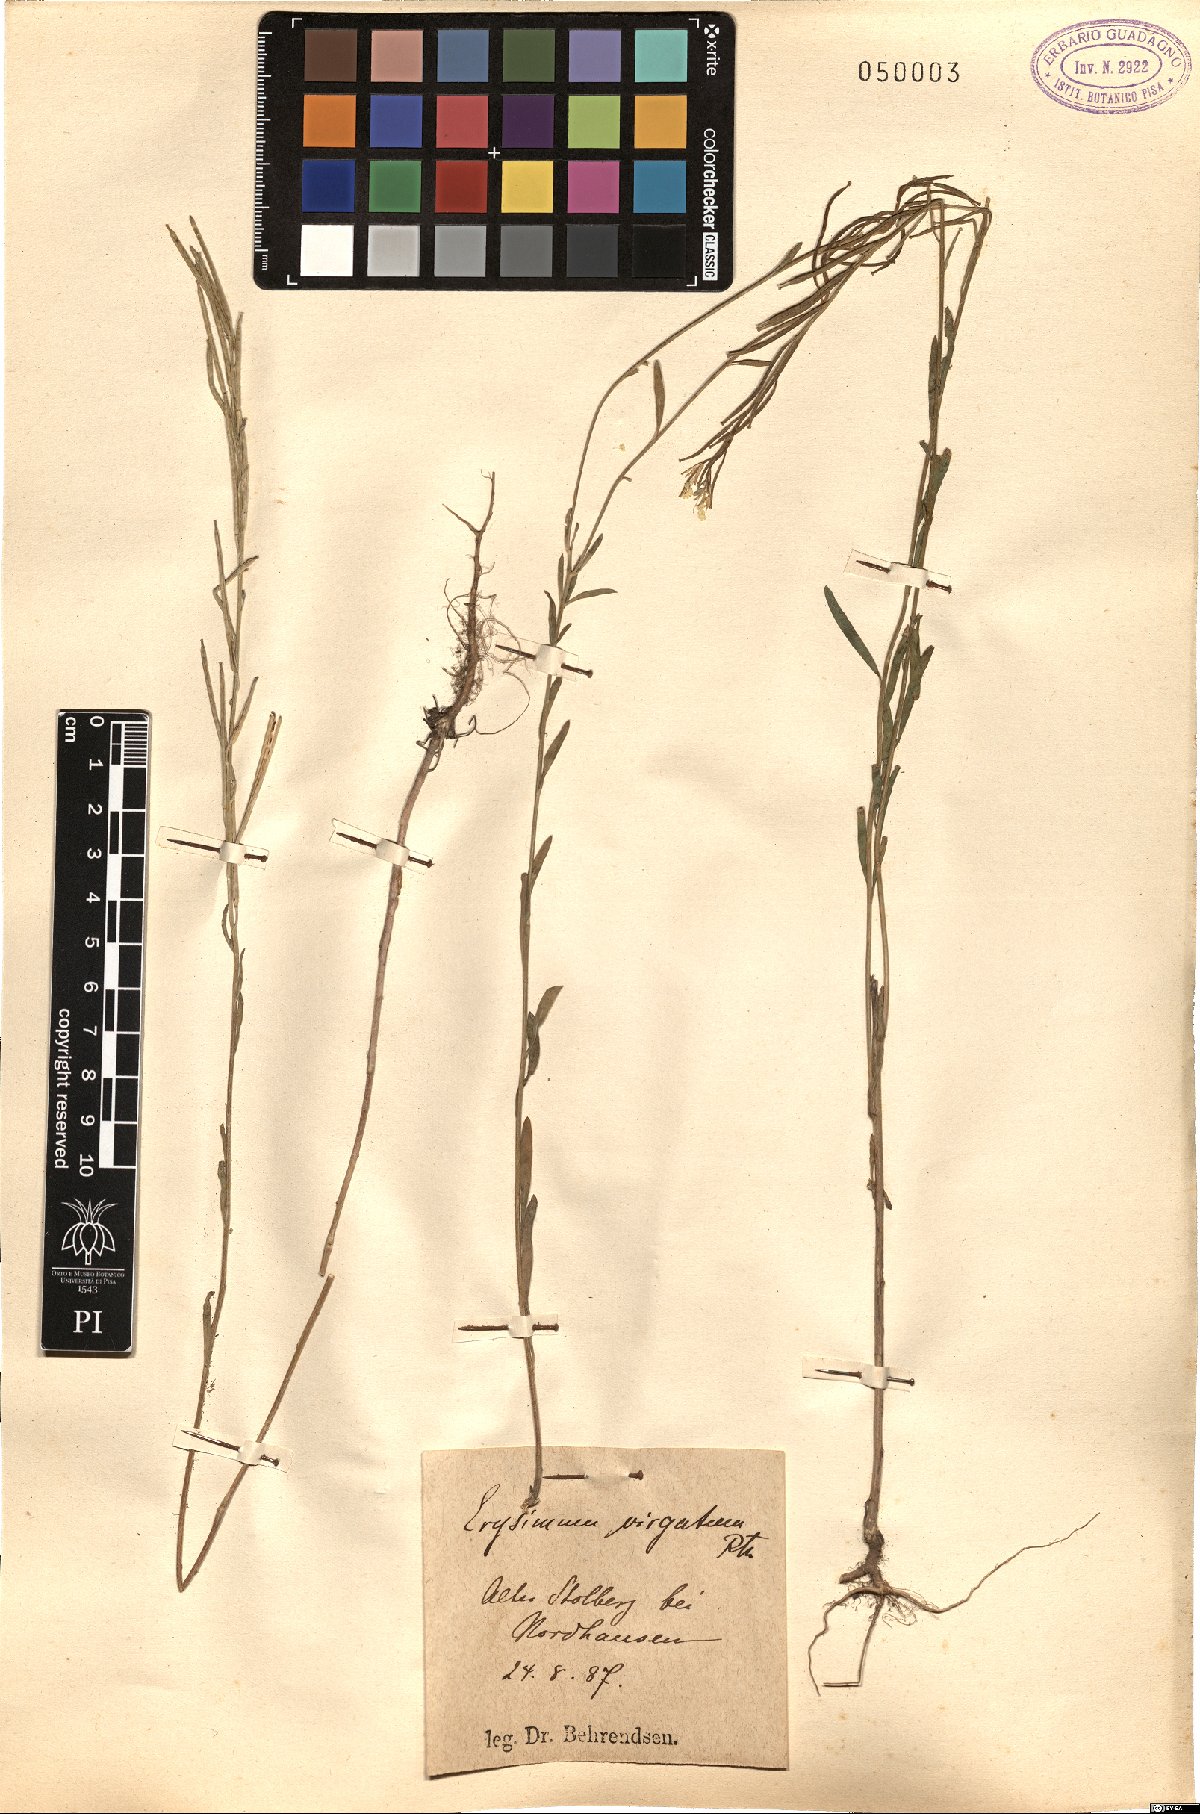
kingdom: Plantae
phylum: Tracheophyta
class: Magnoliopsida
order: Brassicales
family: Brassicaceae
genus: Erysimum
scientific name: Erysimum virgatum
